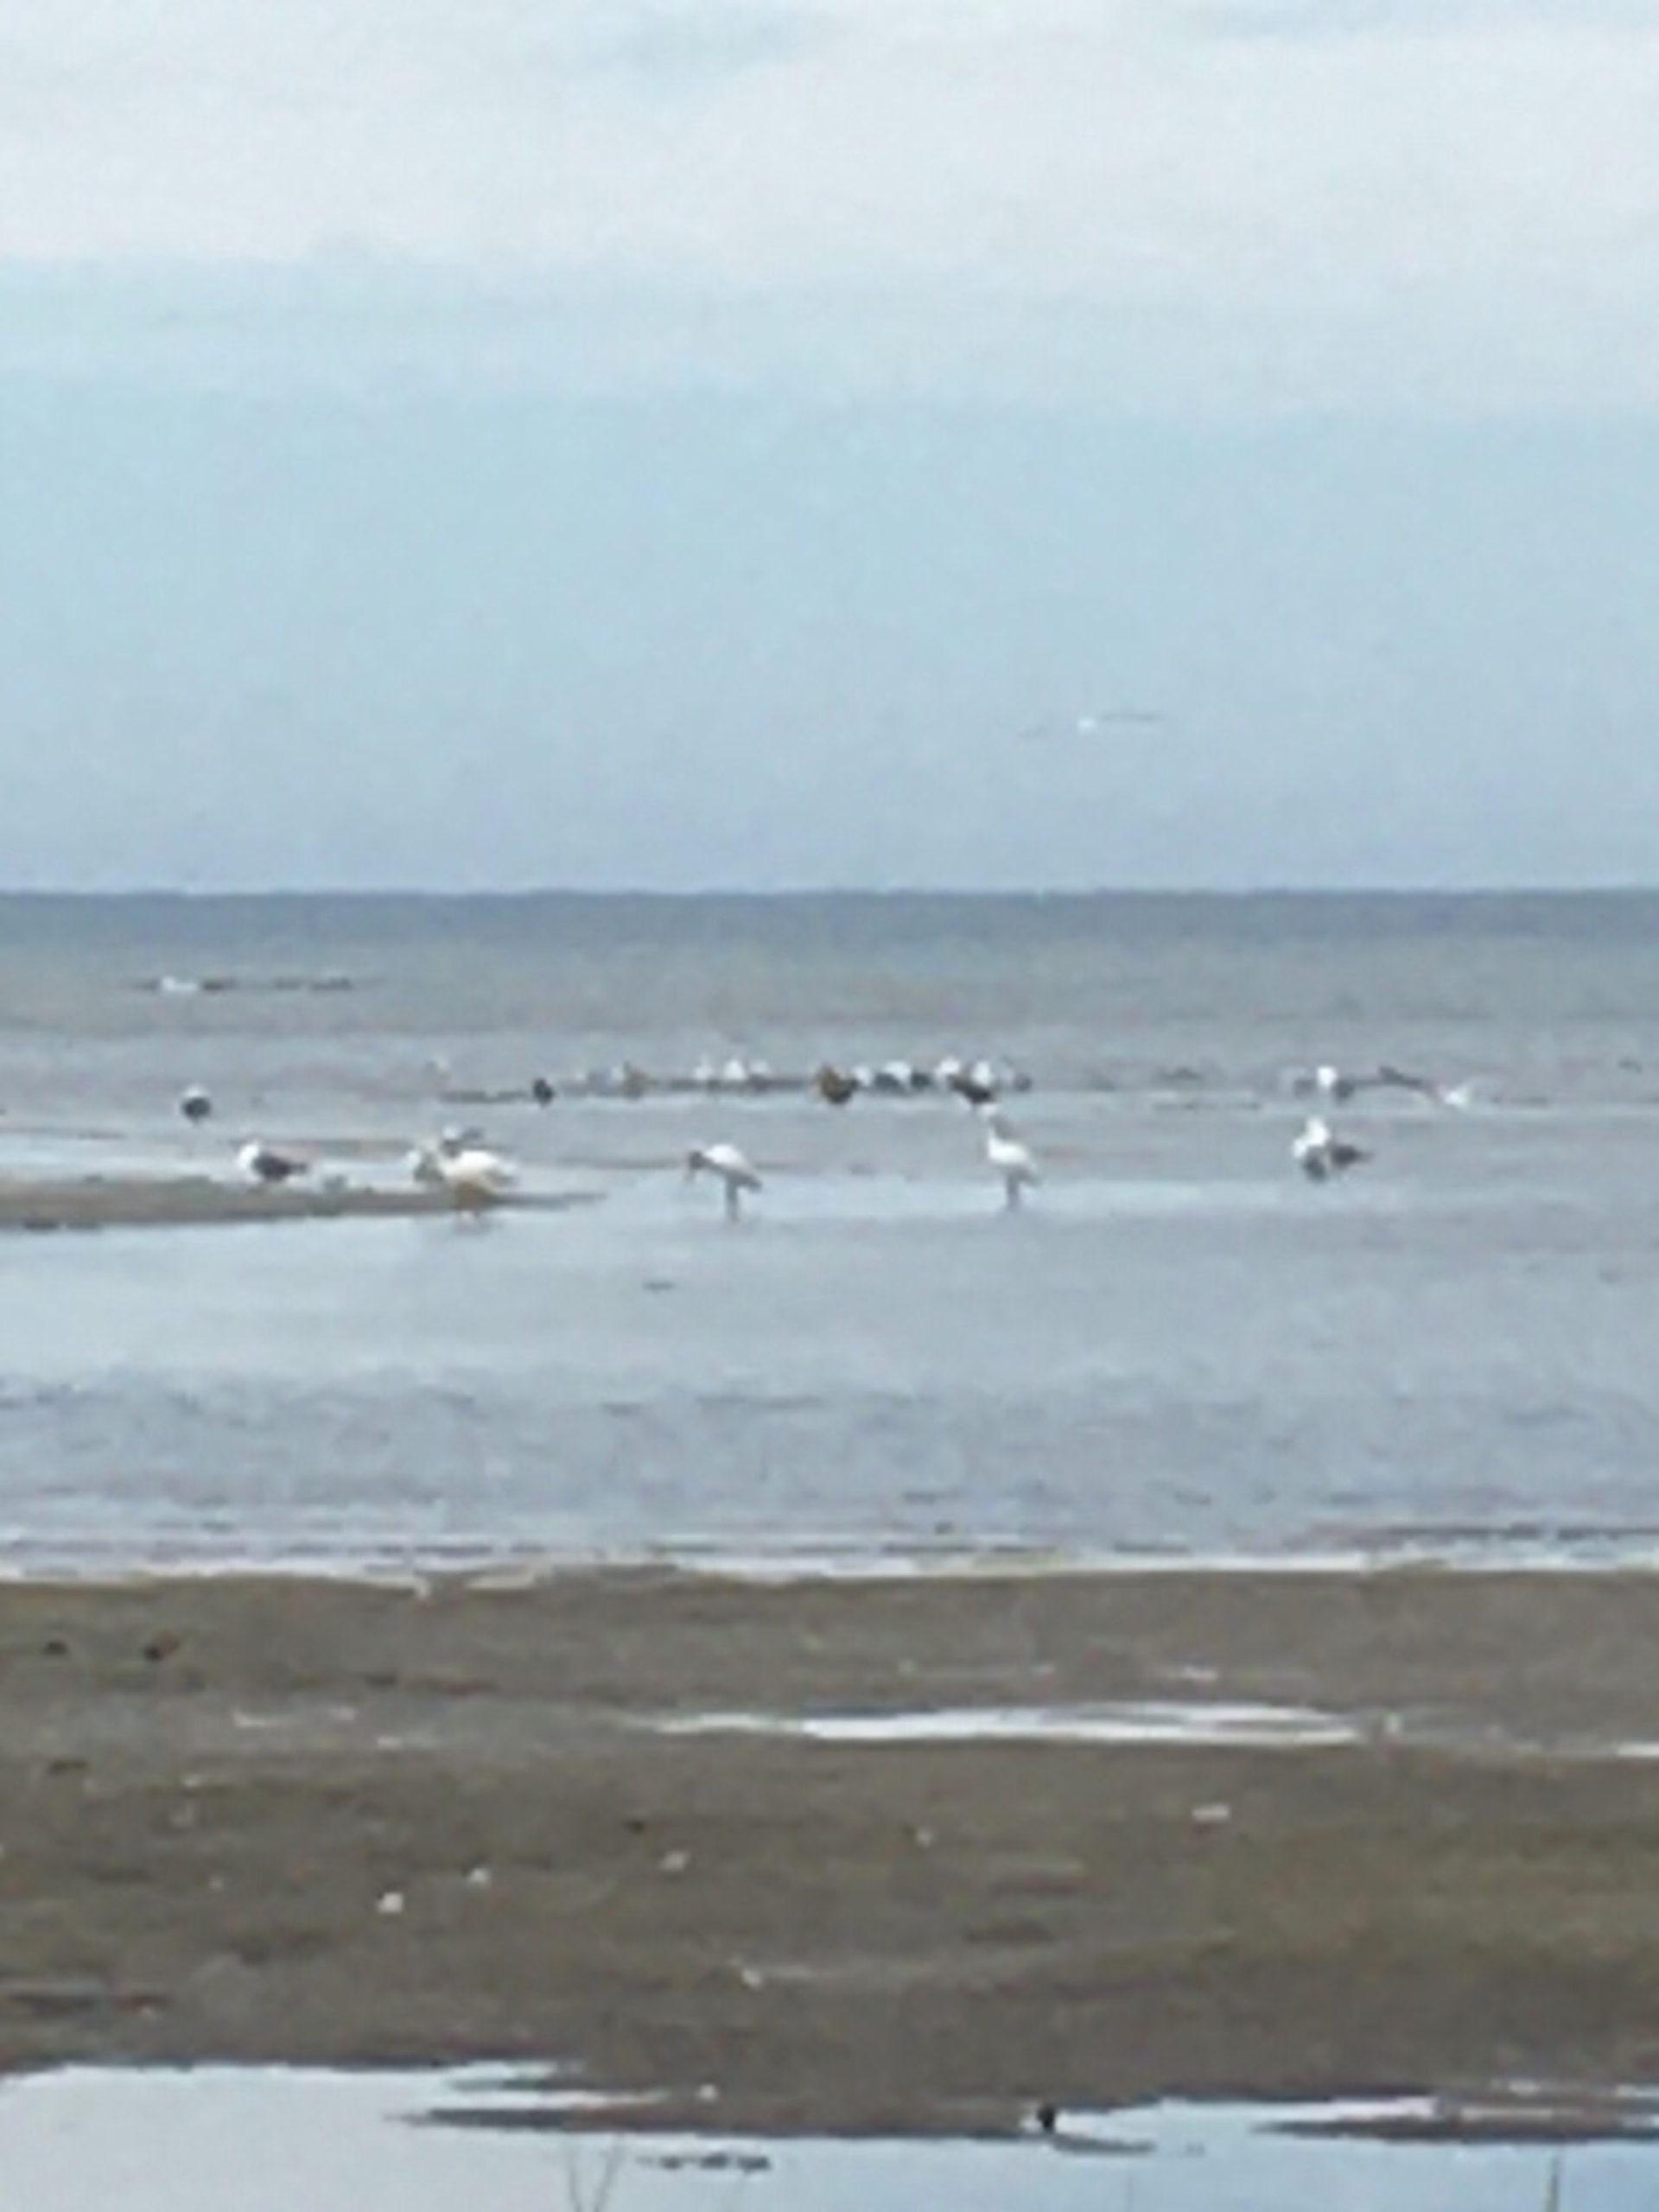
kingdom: Animalia
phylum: Chordata
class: Aves
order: Pelecaniformes
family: Threskiornithidae
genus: Platalea
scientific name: Platalea leucorodia
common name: Skestork
